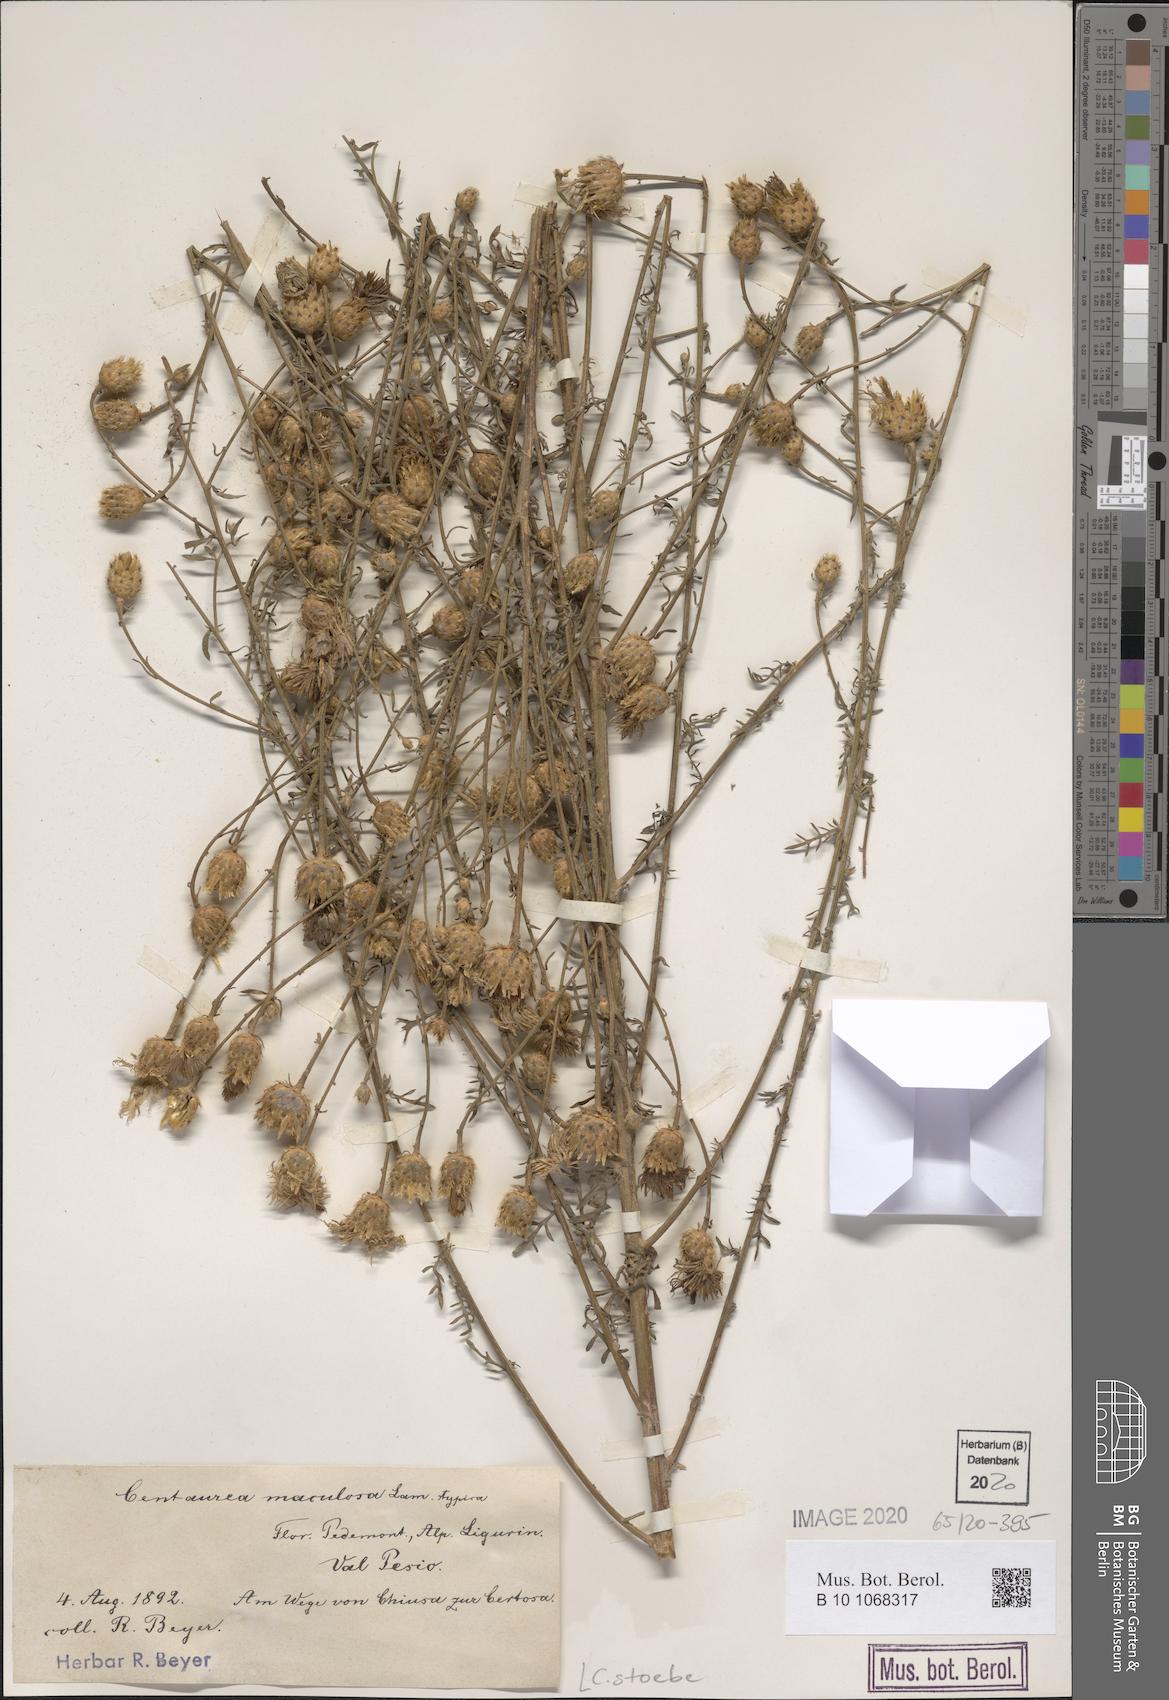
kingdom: Plantae
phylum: Tracheophyta
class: Magnoliopsida
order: Asterales
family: Asteraceae
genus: Centaurea
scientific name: Centaurea stoebe
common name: Spotted knapweed
